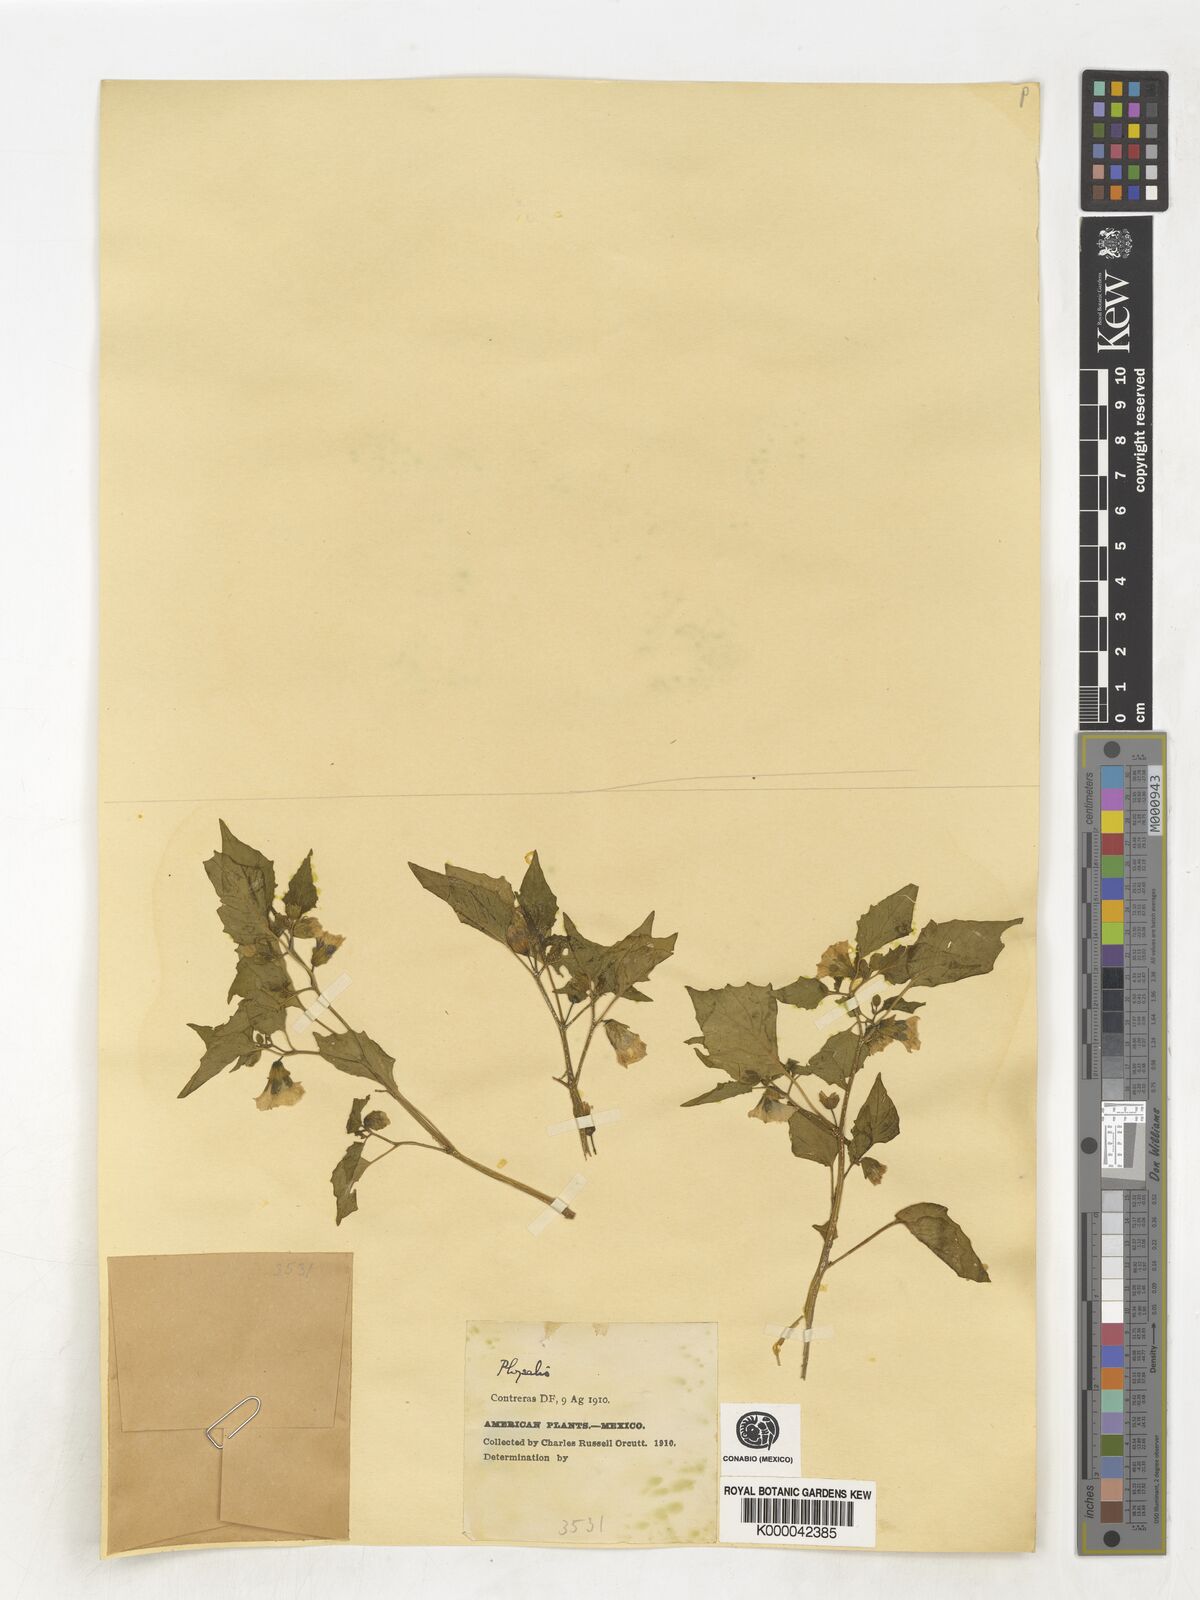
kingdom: Plantae
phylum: Tracheophyta
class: Magnoliopsida
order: Solanales
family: Solanaceae
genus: Physalis
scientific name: Physalis
